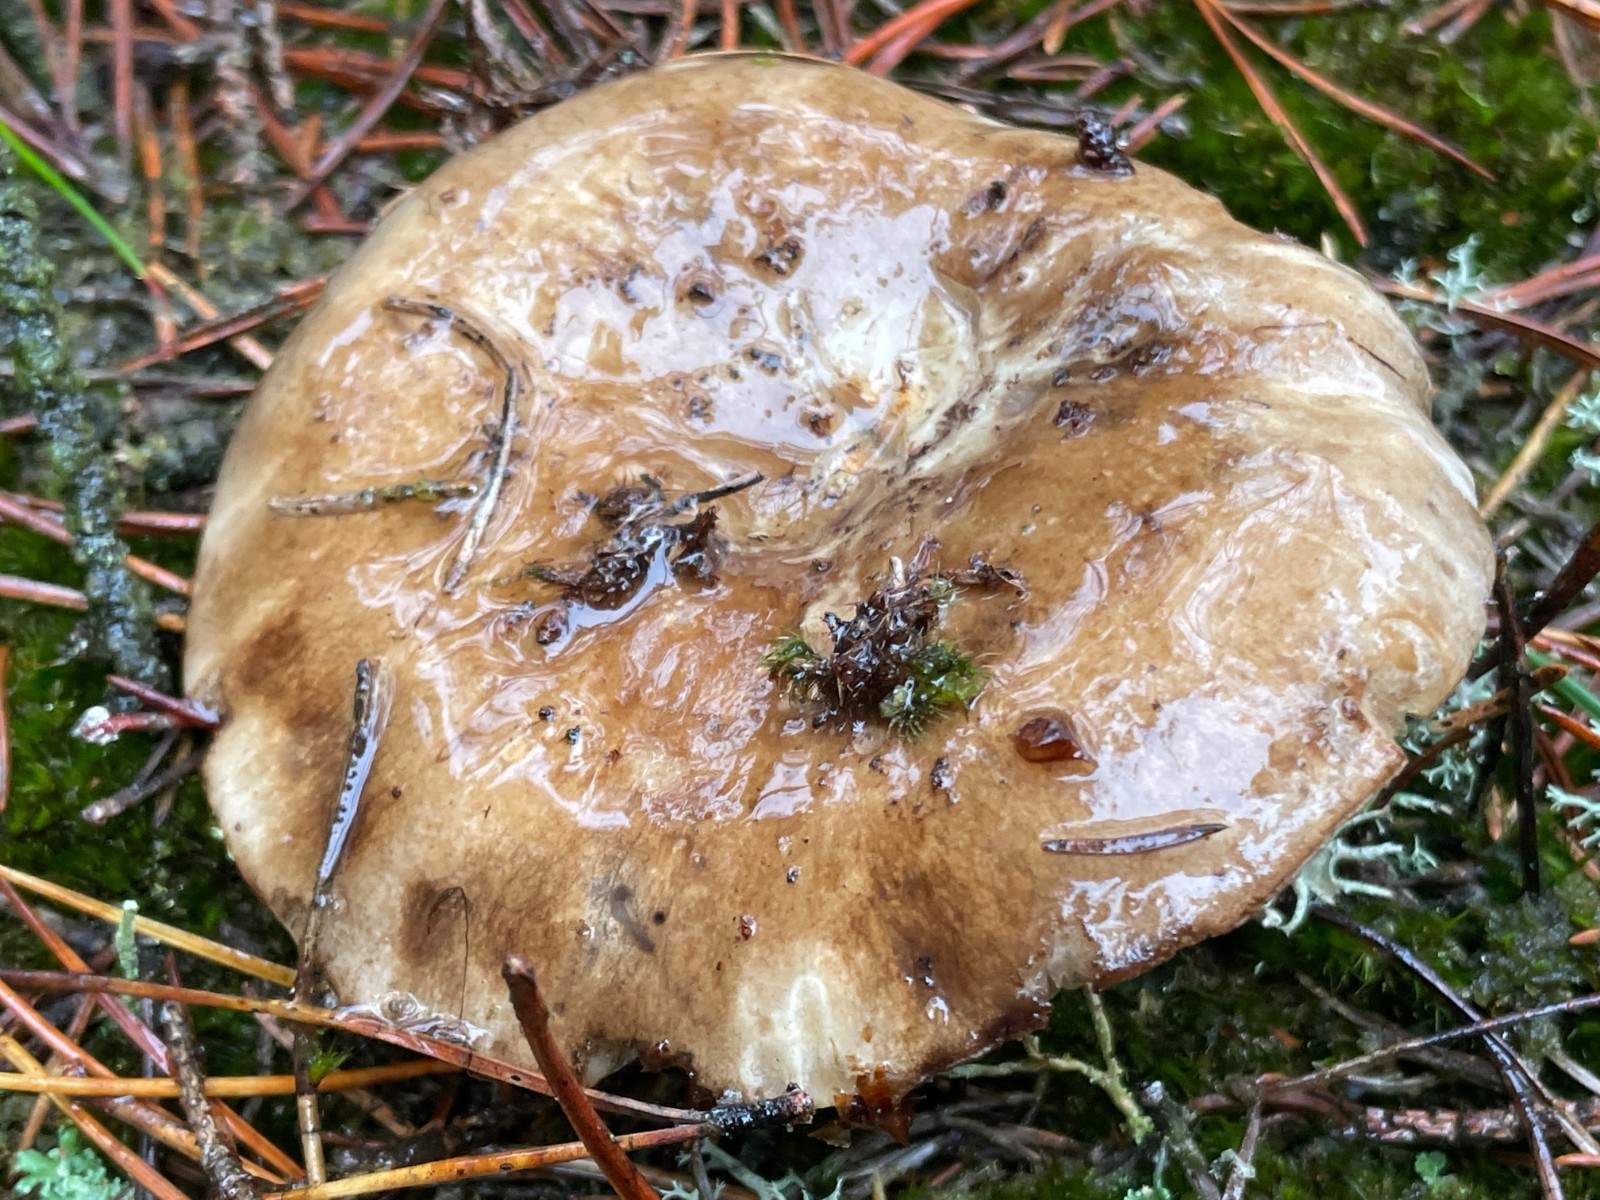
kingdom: Fungi
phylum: Basidiomycota
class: Agaricomycetes
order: Russulales
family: Russulaceae
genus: Russula
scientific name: Russula adusta
